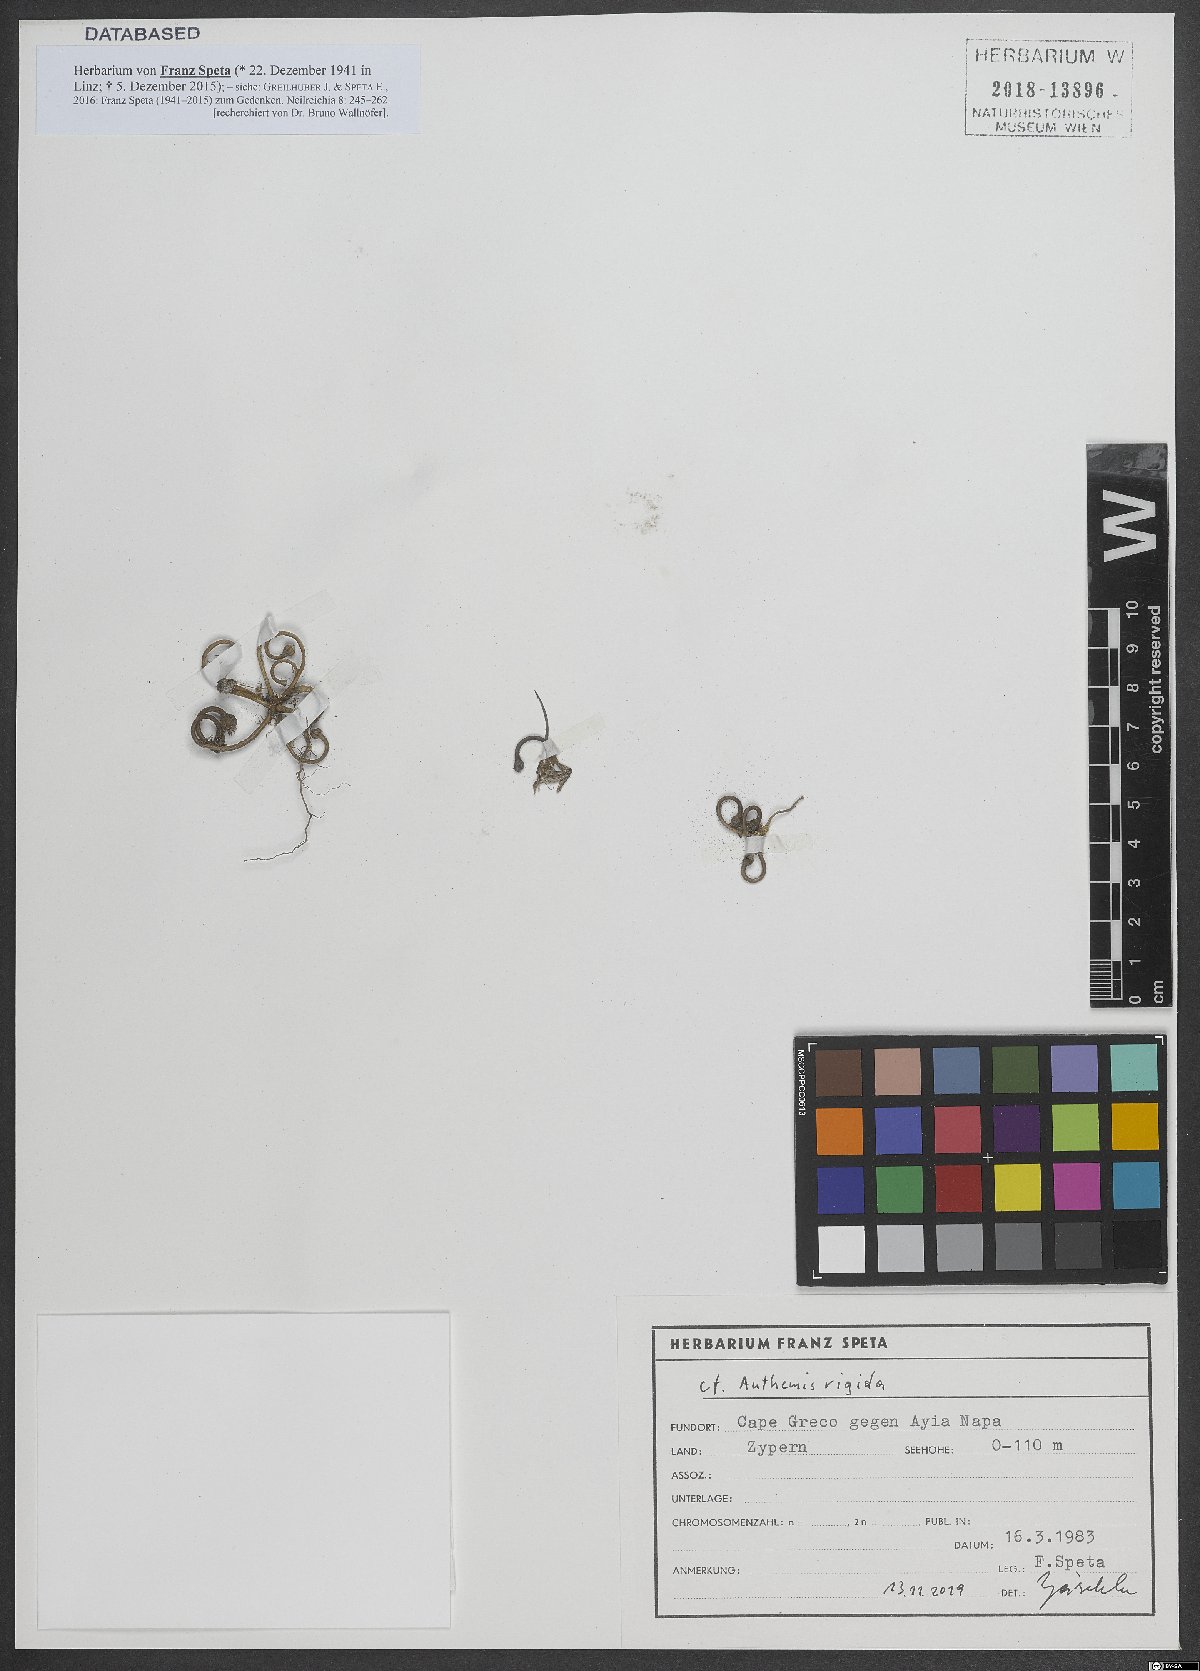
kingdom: Plantae
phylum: Tracheophyta
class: Magnoliopsida
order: Asterales
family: Asteraceae
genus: Anthemis
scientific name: Anthemis rigida
